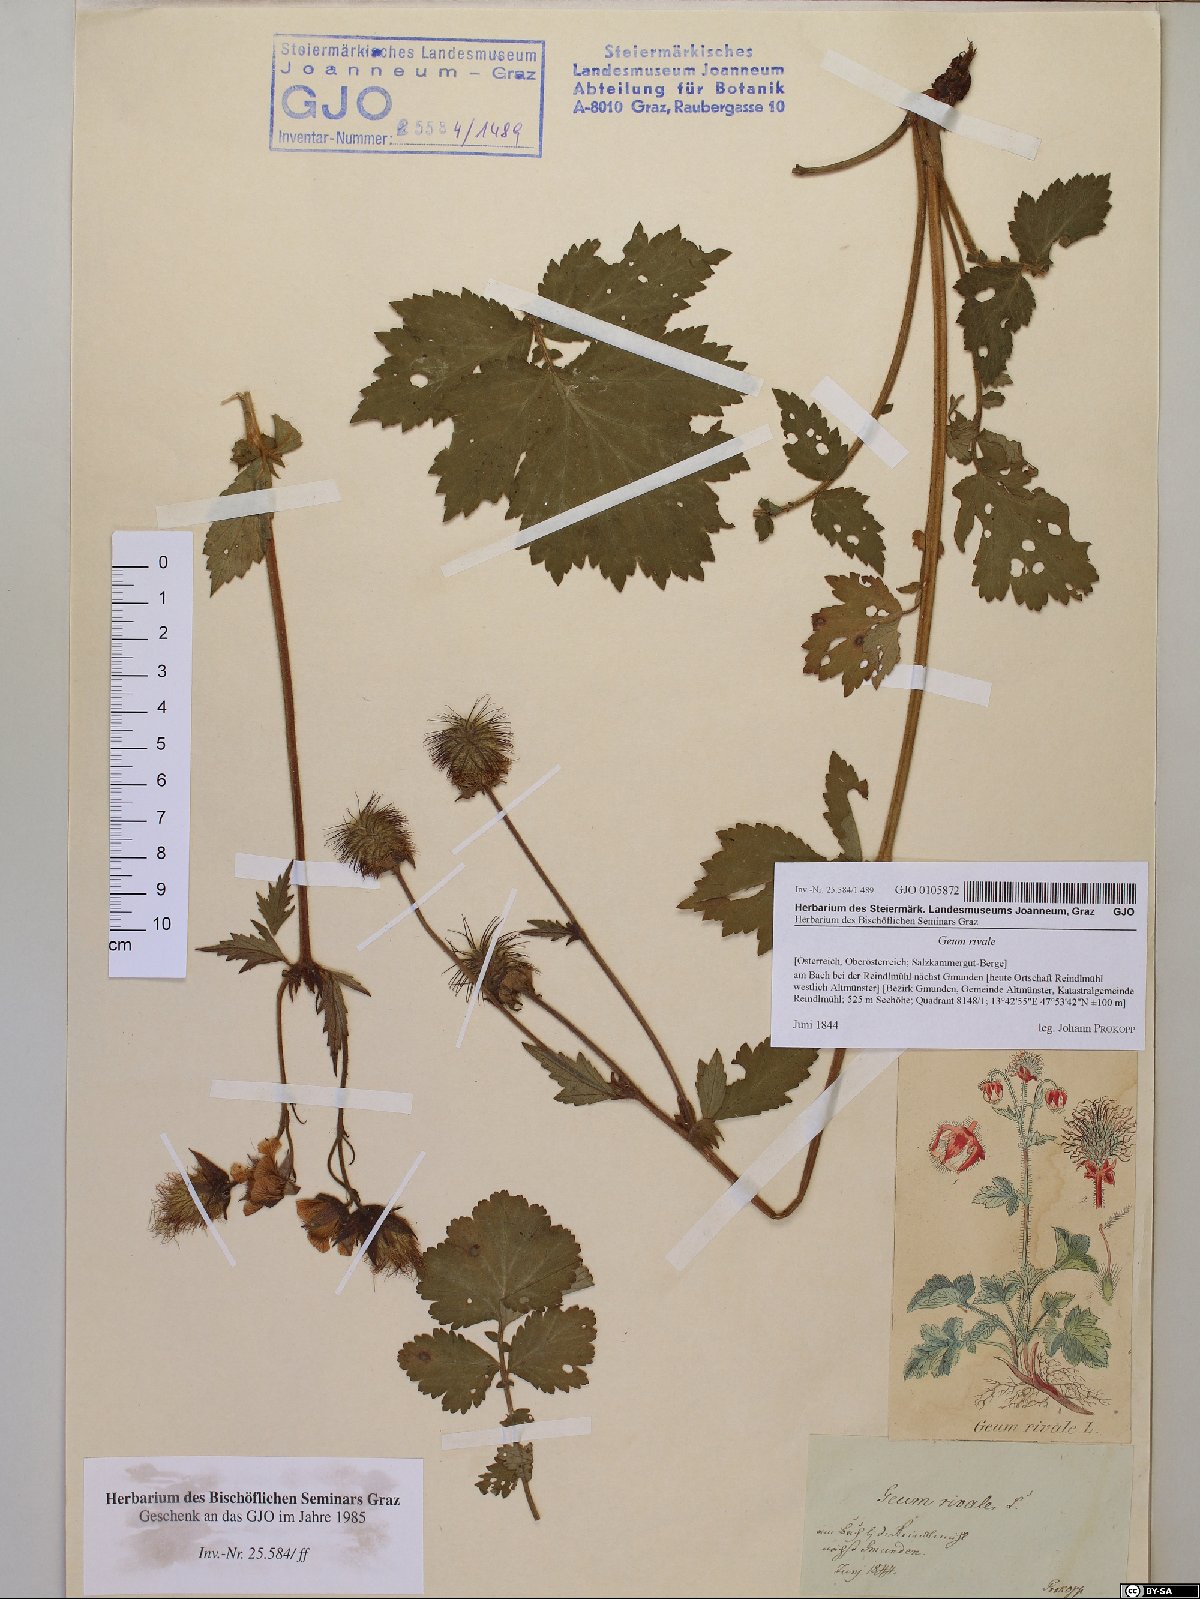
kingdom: Plantae
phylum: Tracheophyta
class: Magnoliopsida
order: Rosales
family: Rosaceae
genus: Geum
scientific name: Geum rivale
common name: Water avens
